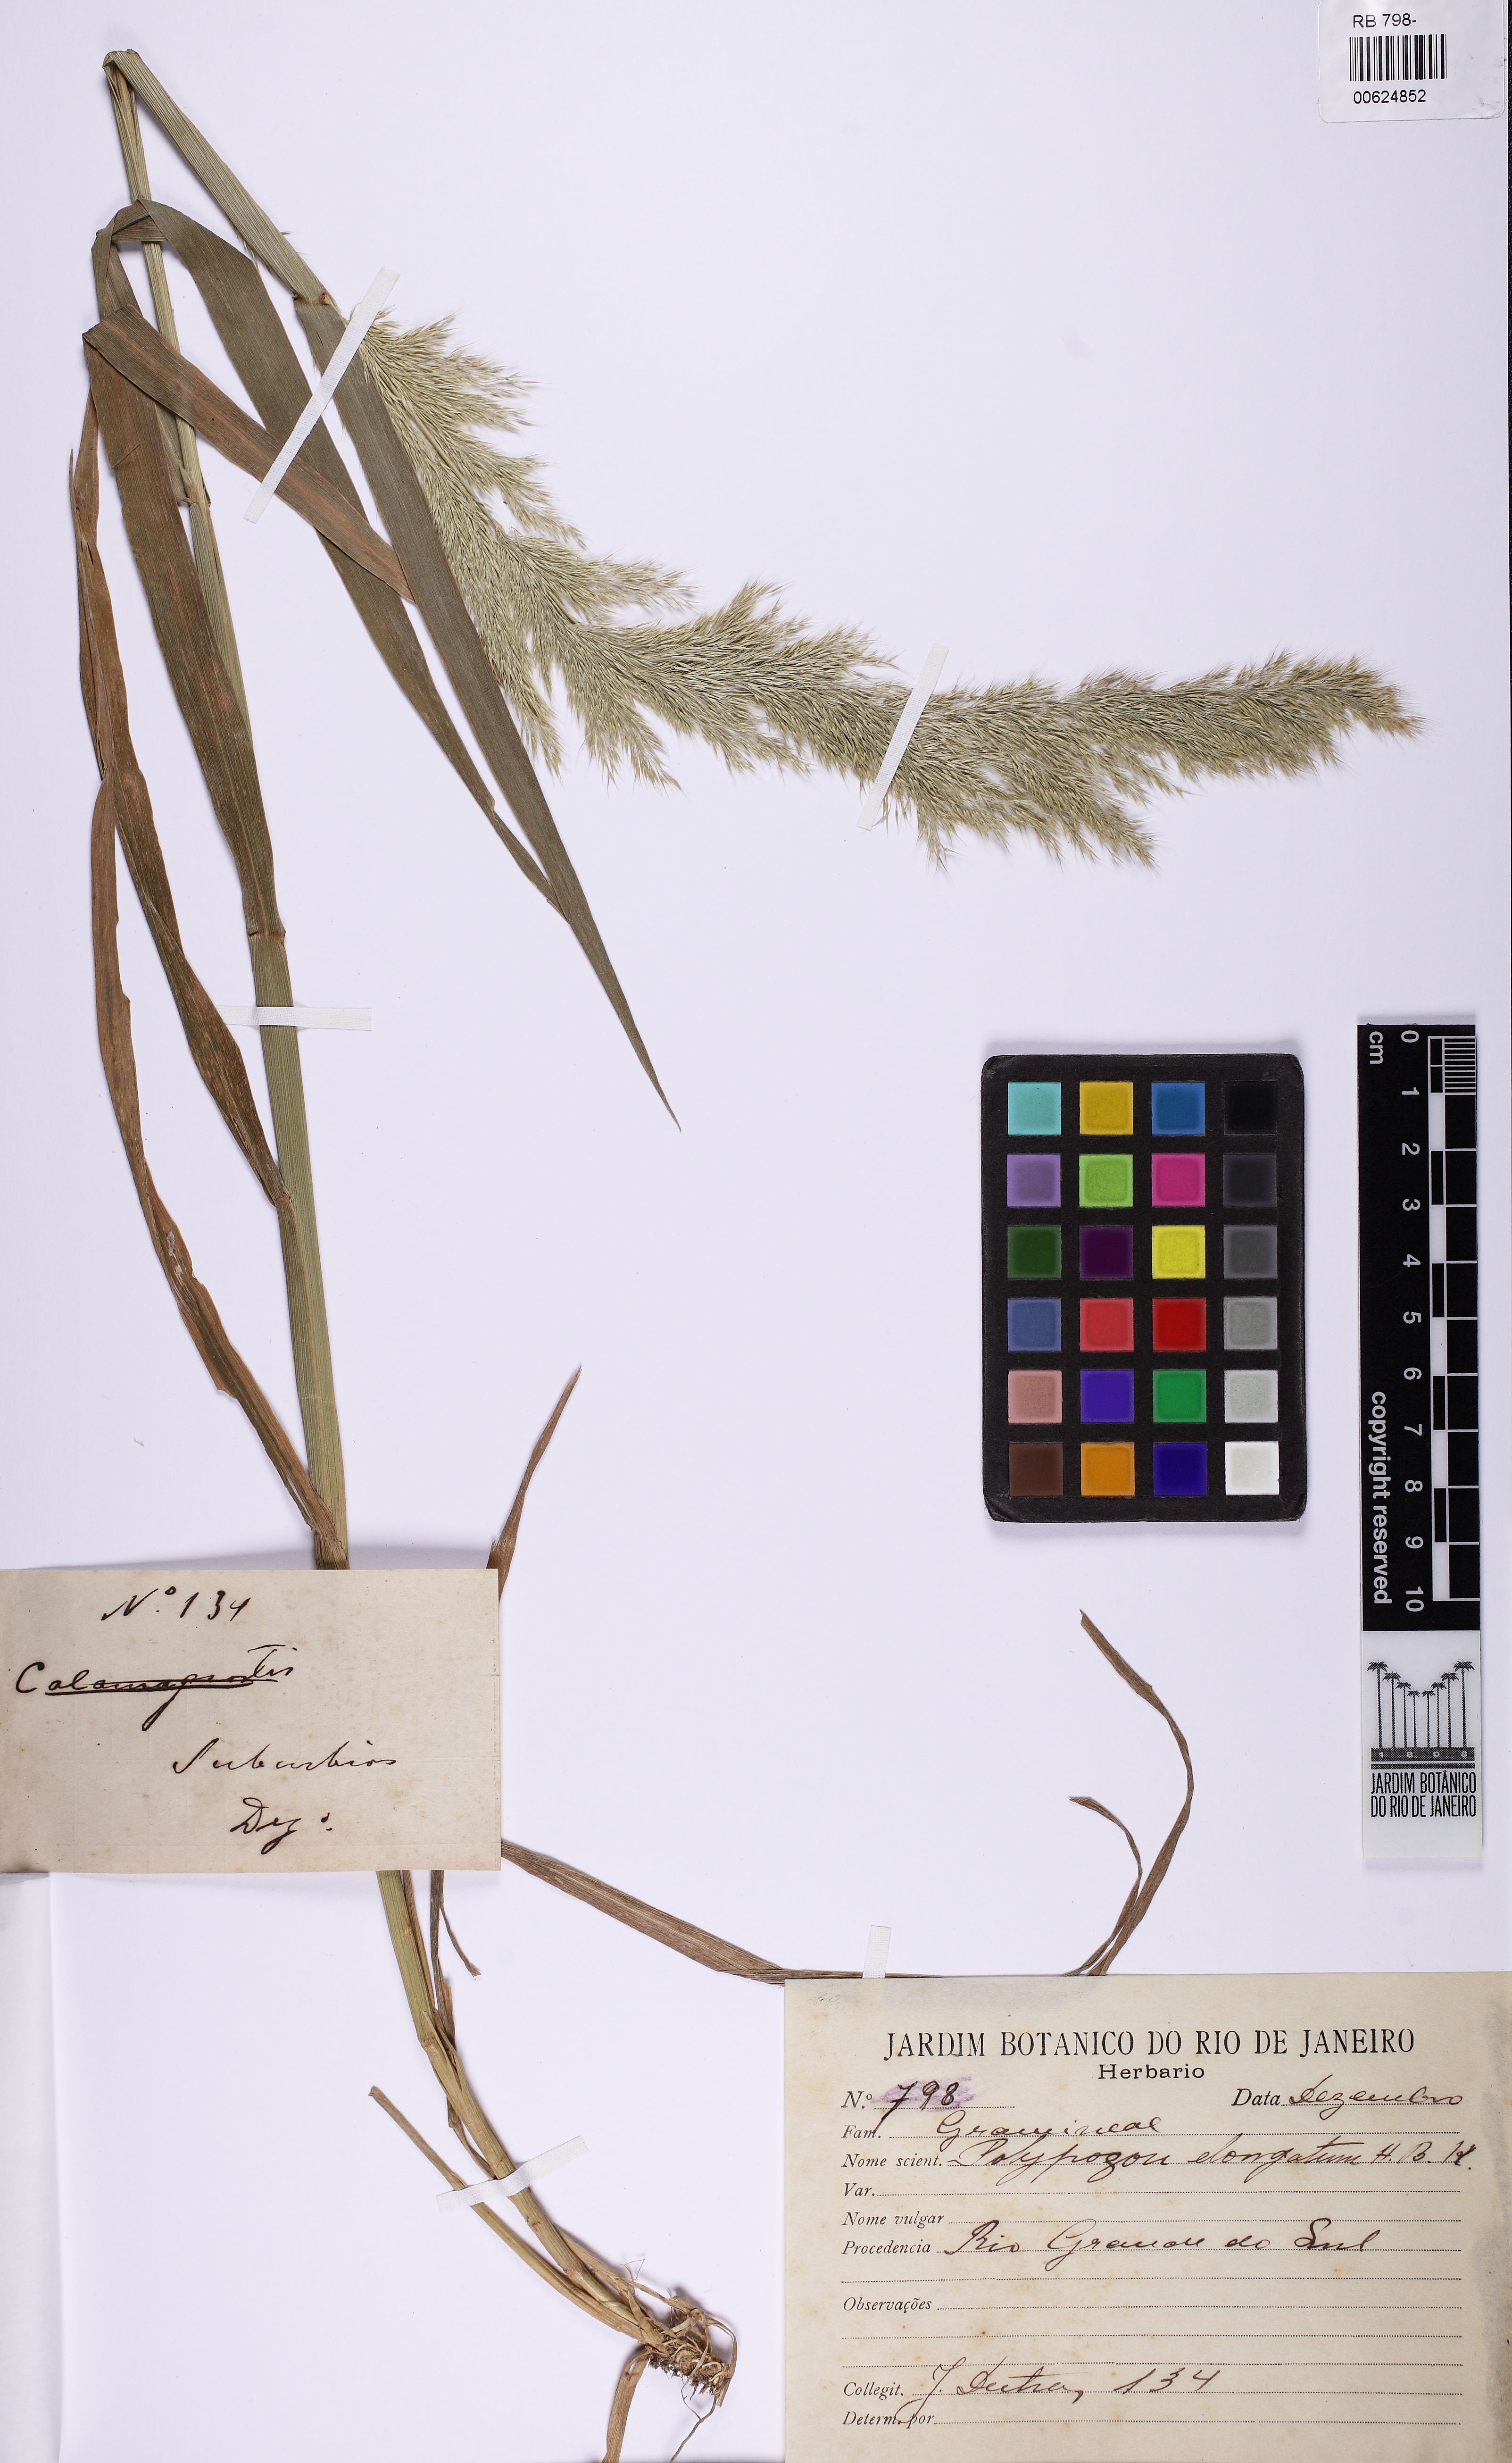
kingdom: Plantae
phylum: Tracheophyta
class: Liliopsida
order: Poales
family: Poaceae
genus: Polypogon
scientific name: Polypogon elongatus
